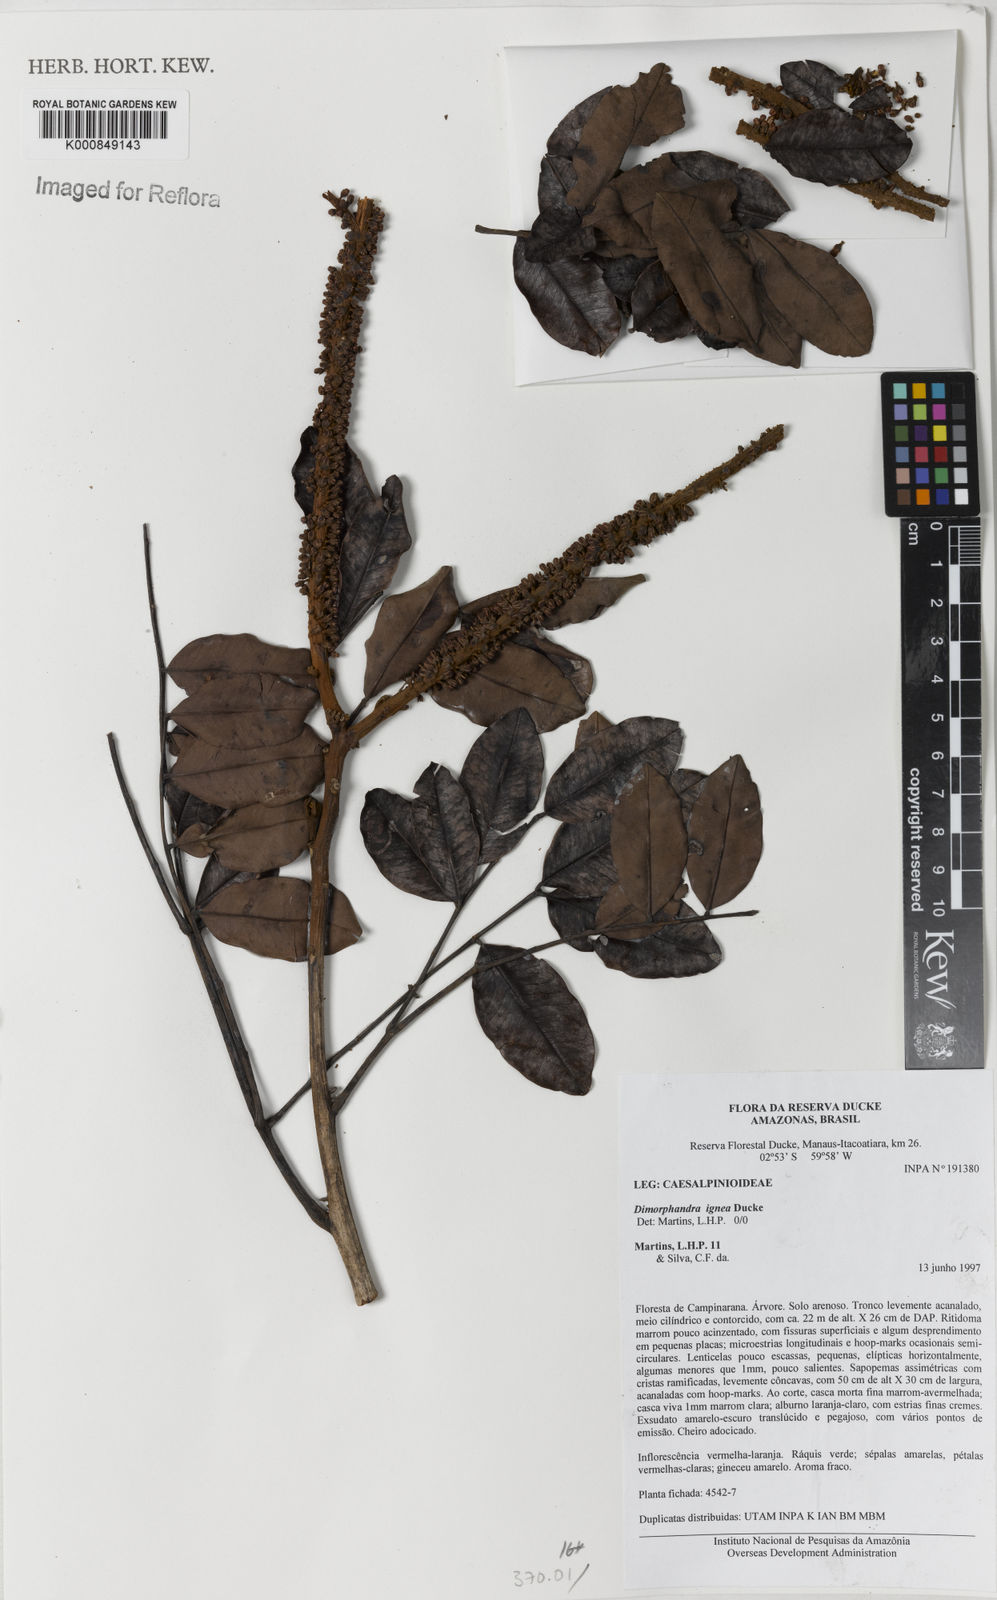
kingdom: Plantae
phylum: Tracheophyta
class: Magnoliopsida
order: Fabales
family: Fabaceae
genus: Dimorphandra
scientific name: Dimorphandra ignea
